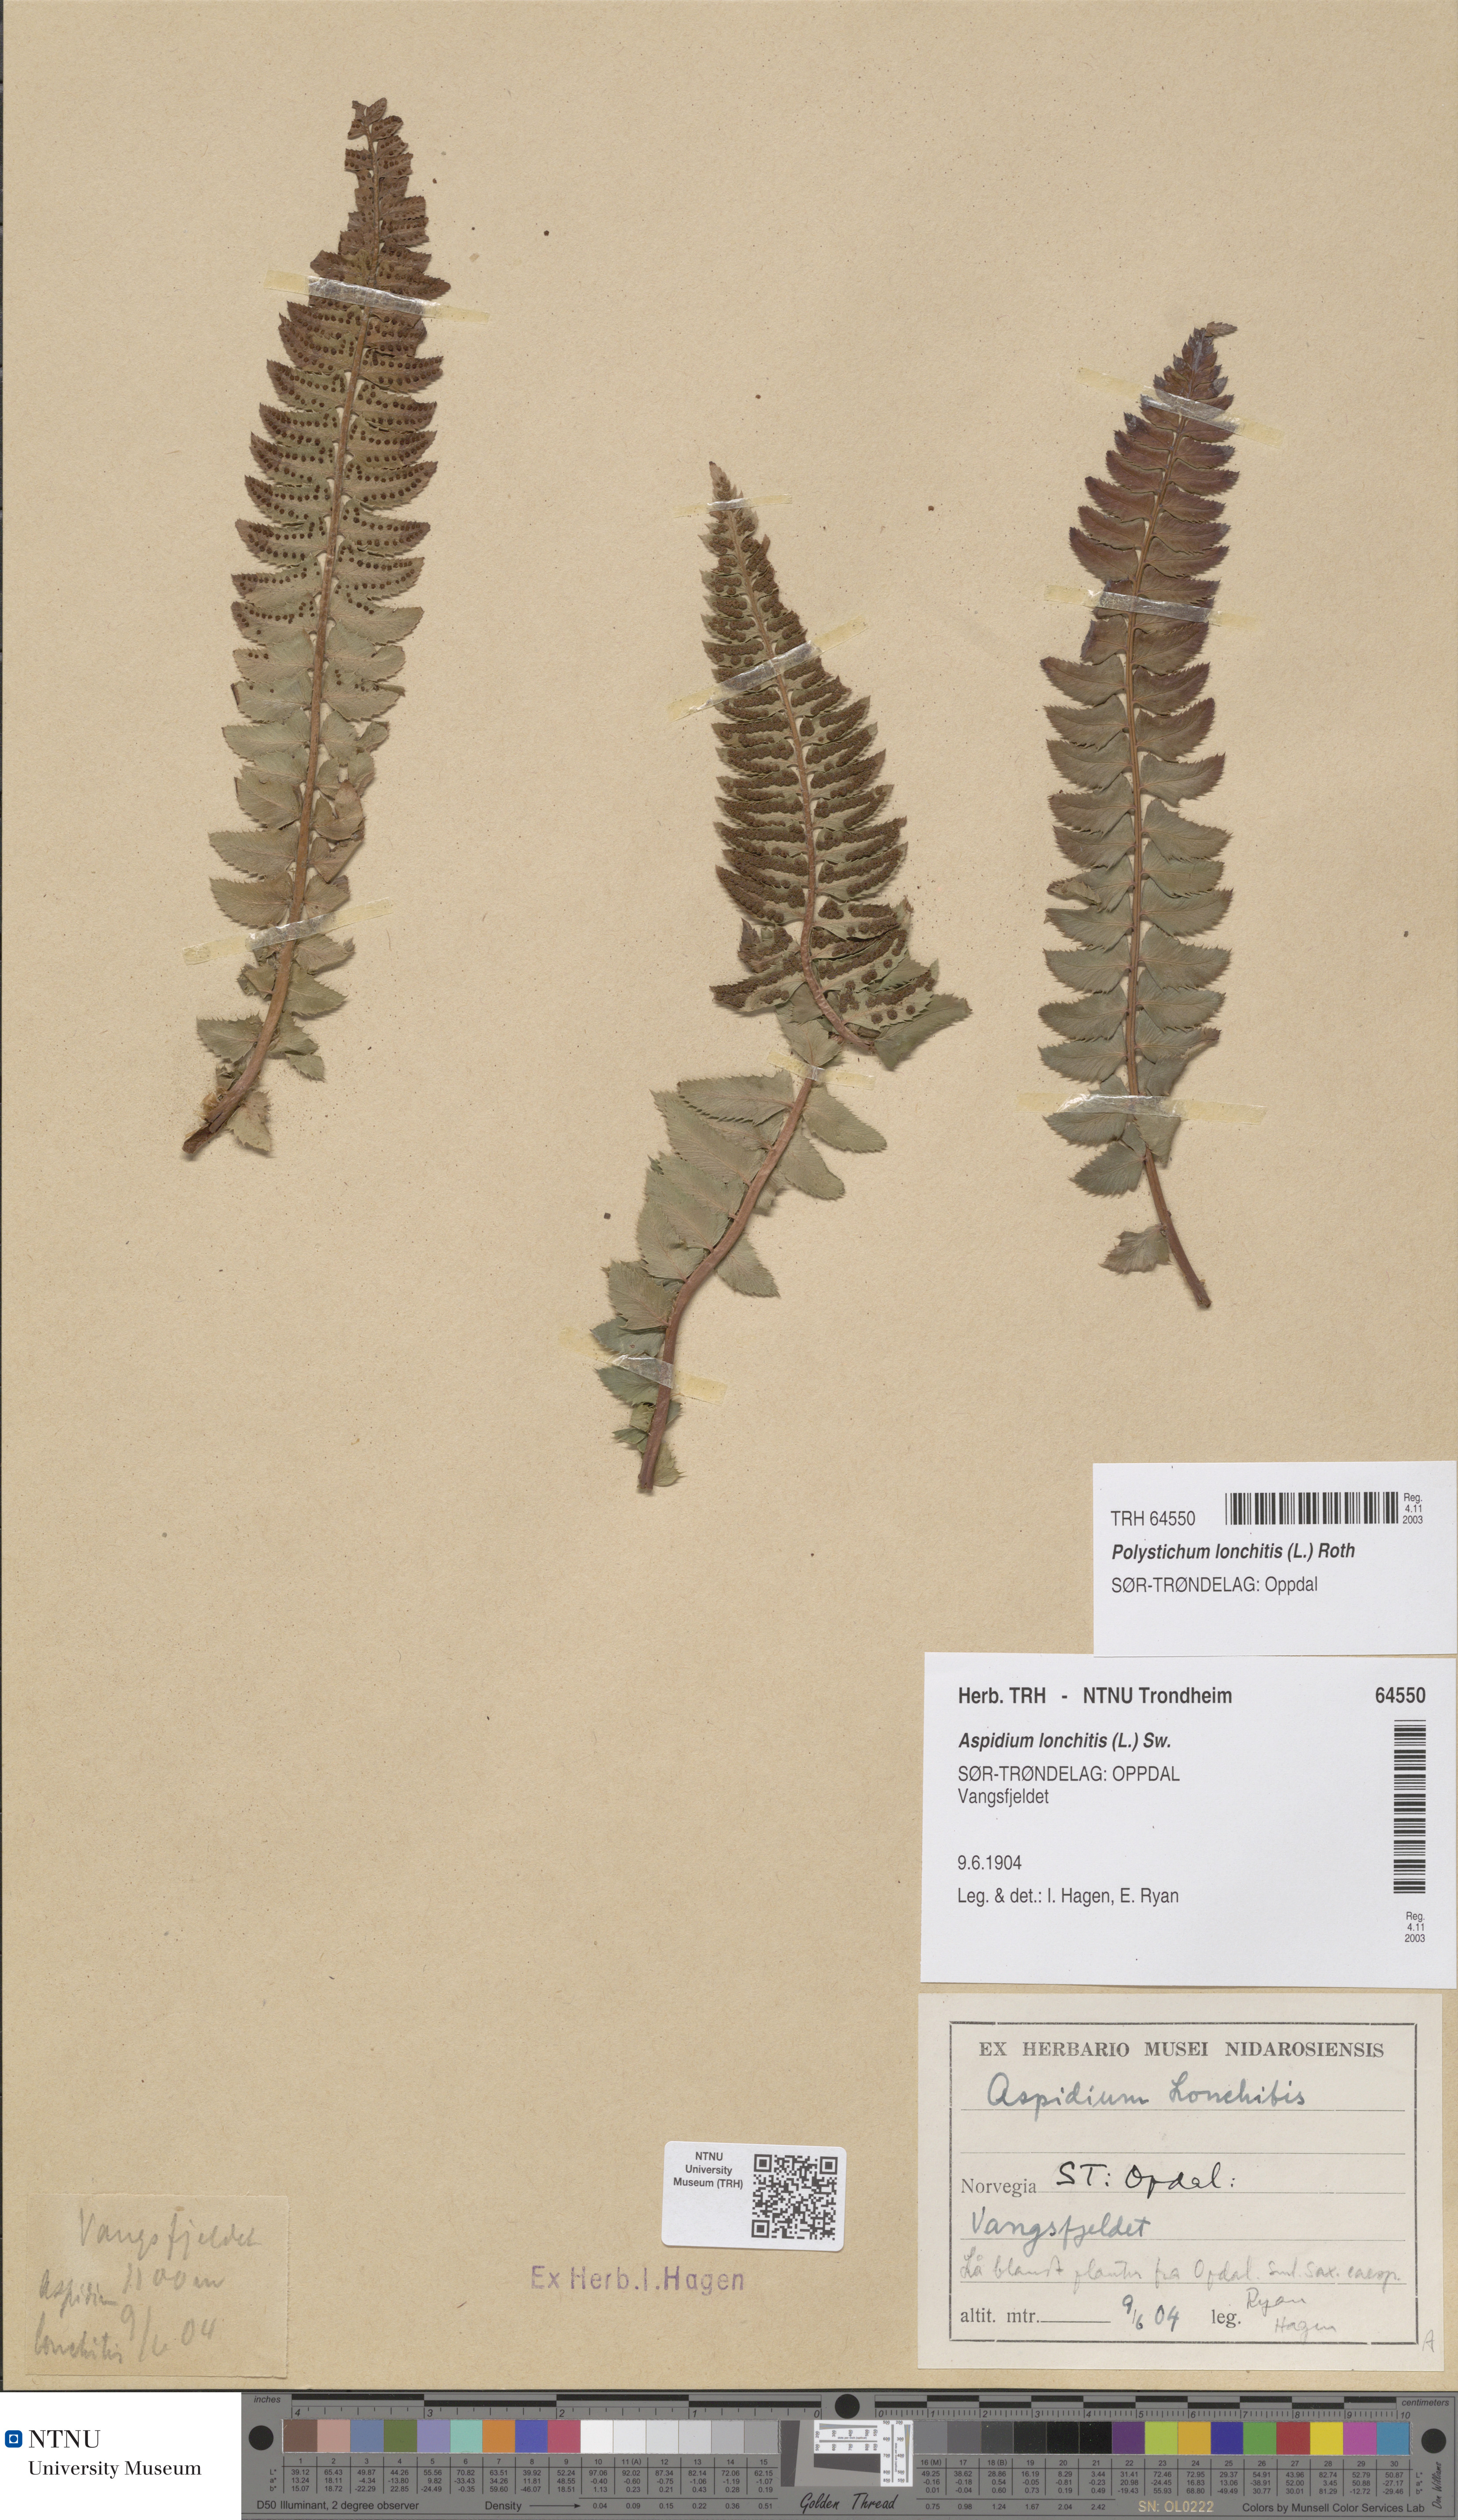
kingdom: Plantae
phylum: Tracheophyta
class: Polypodiopsida
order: Polypodiales
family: Dryopteridaceae
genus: Polystichum
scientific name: Polystichum lonchitis
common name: Holly fern
